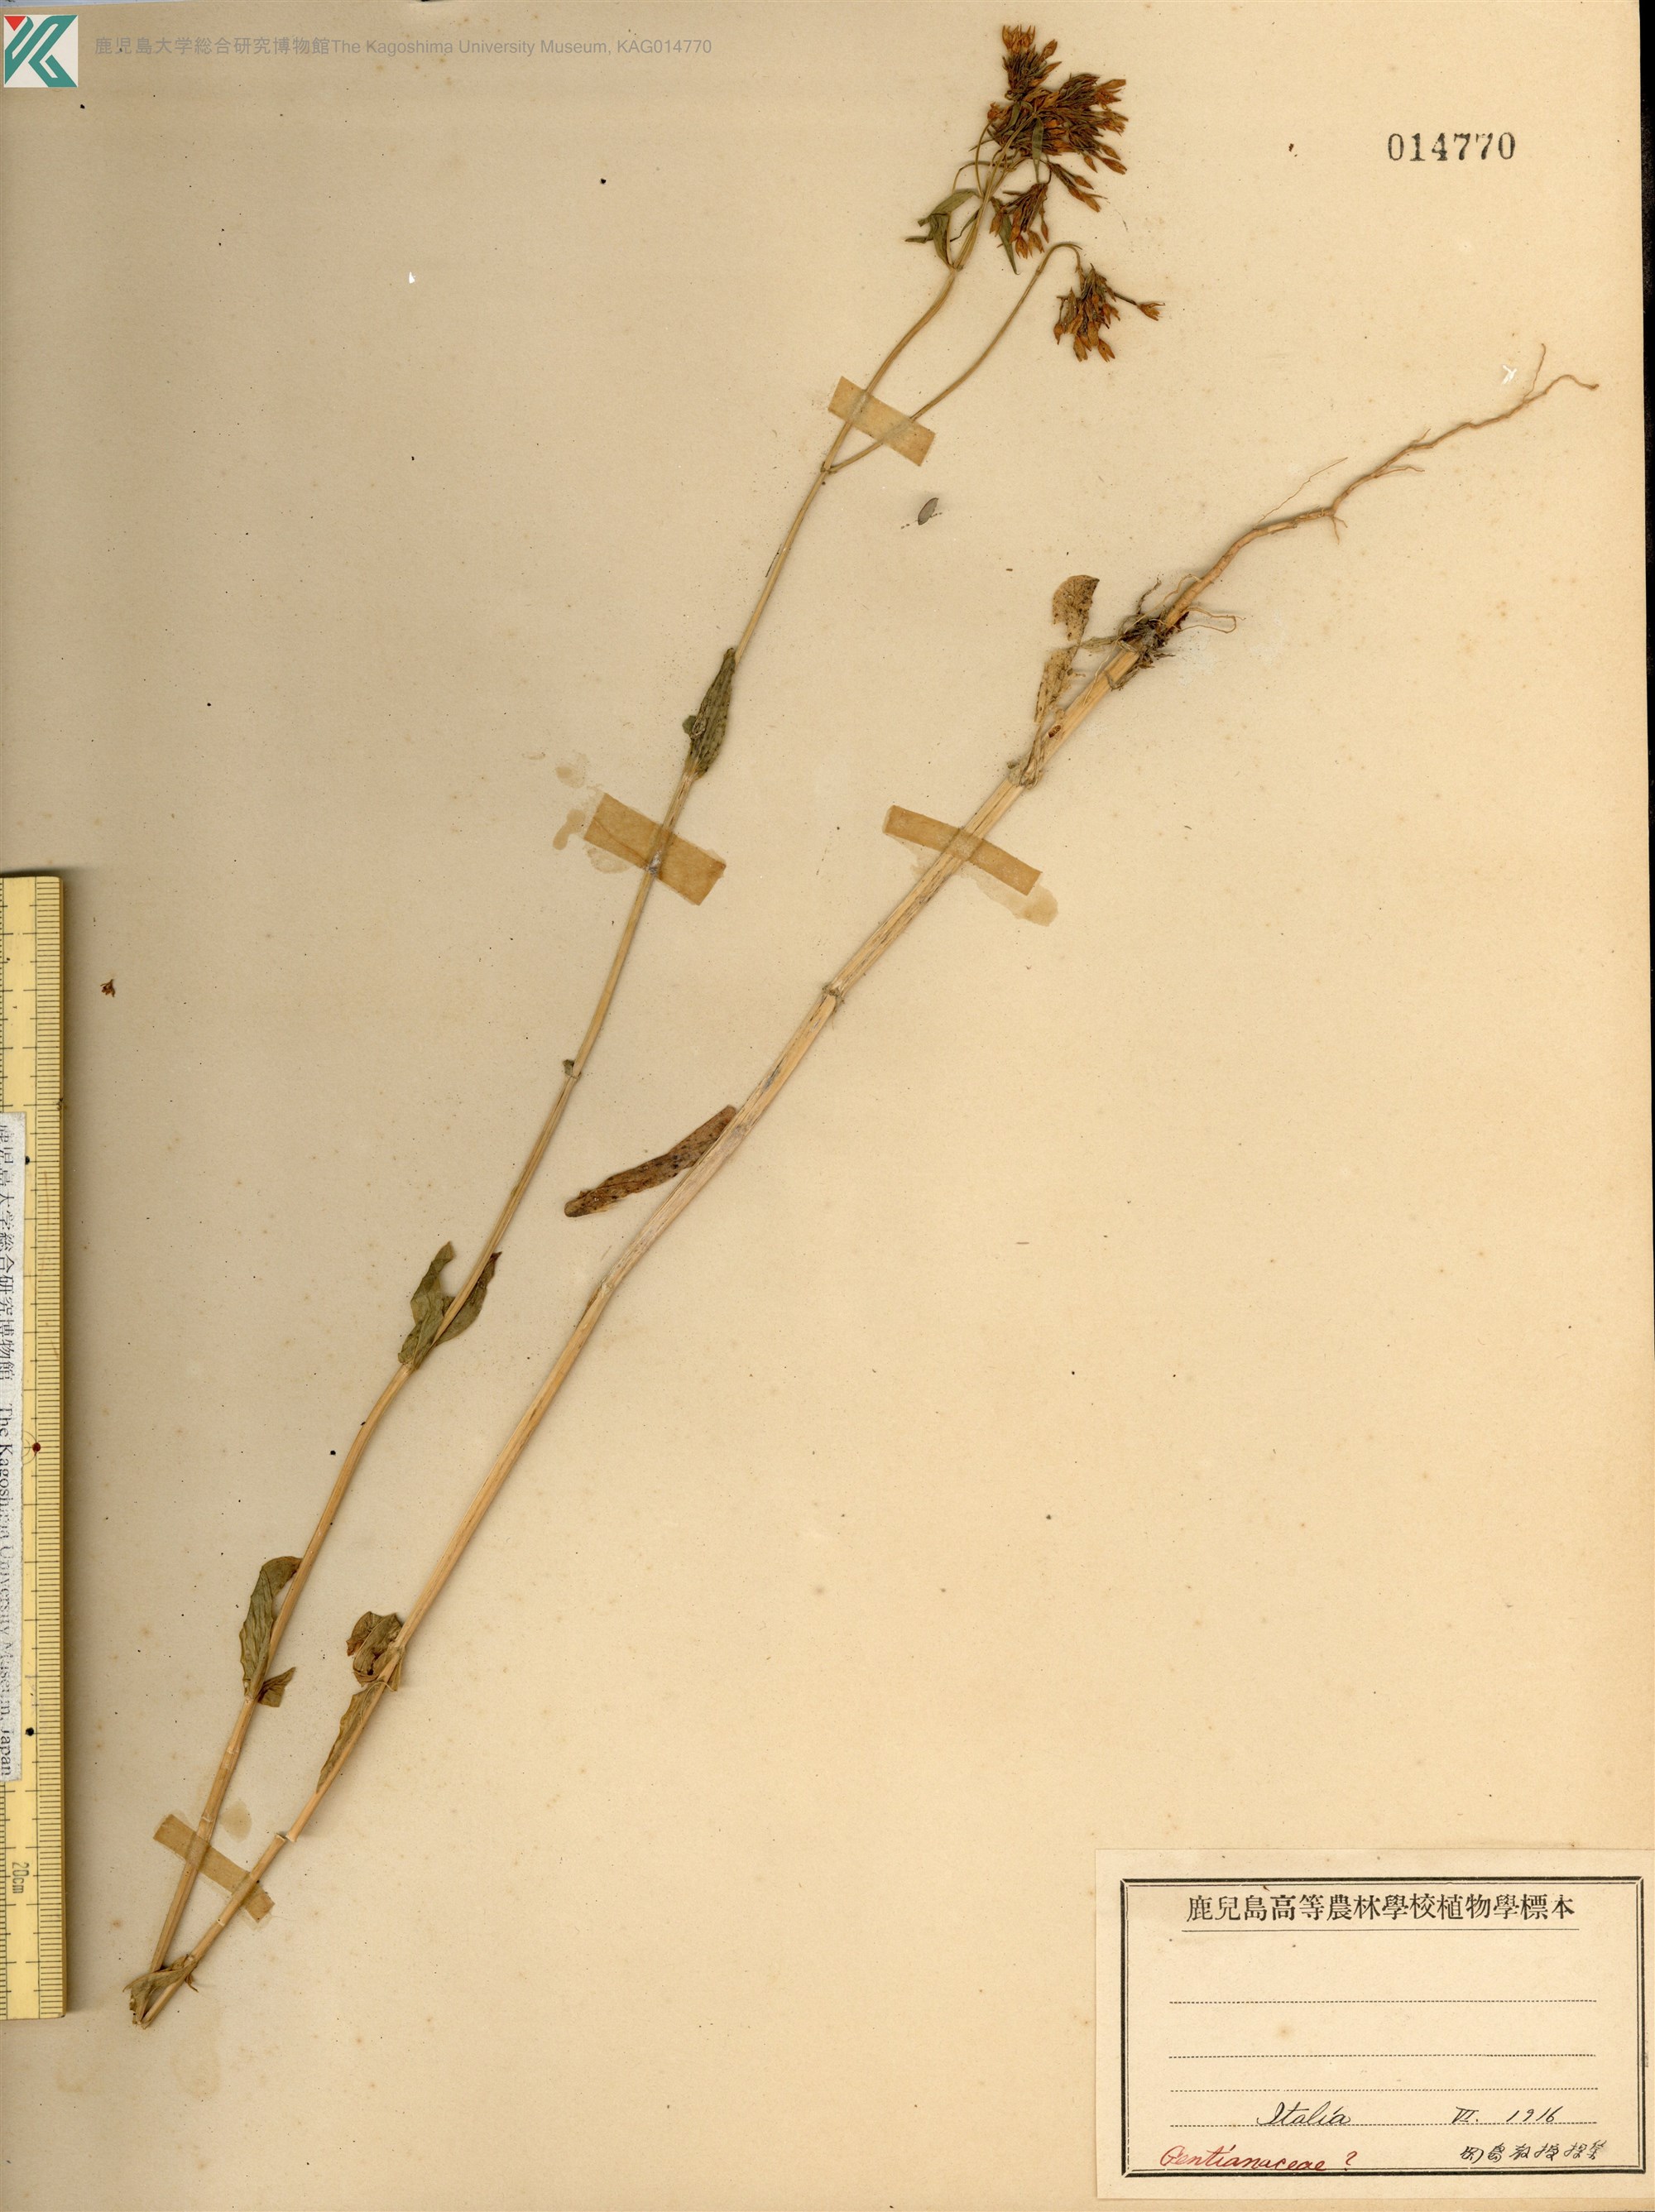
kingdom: Plantae
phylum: Tracheophyta
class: Magnoliopsida
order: Gentianales
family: Gentianaceae
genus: Centaurium
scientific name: Centaurium erythraea
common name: Common centaury
